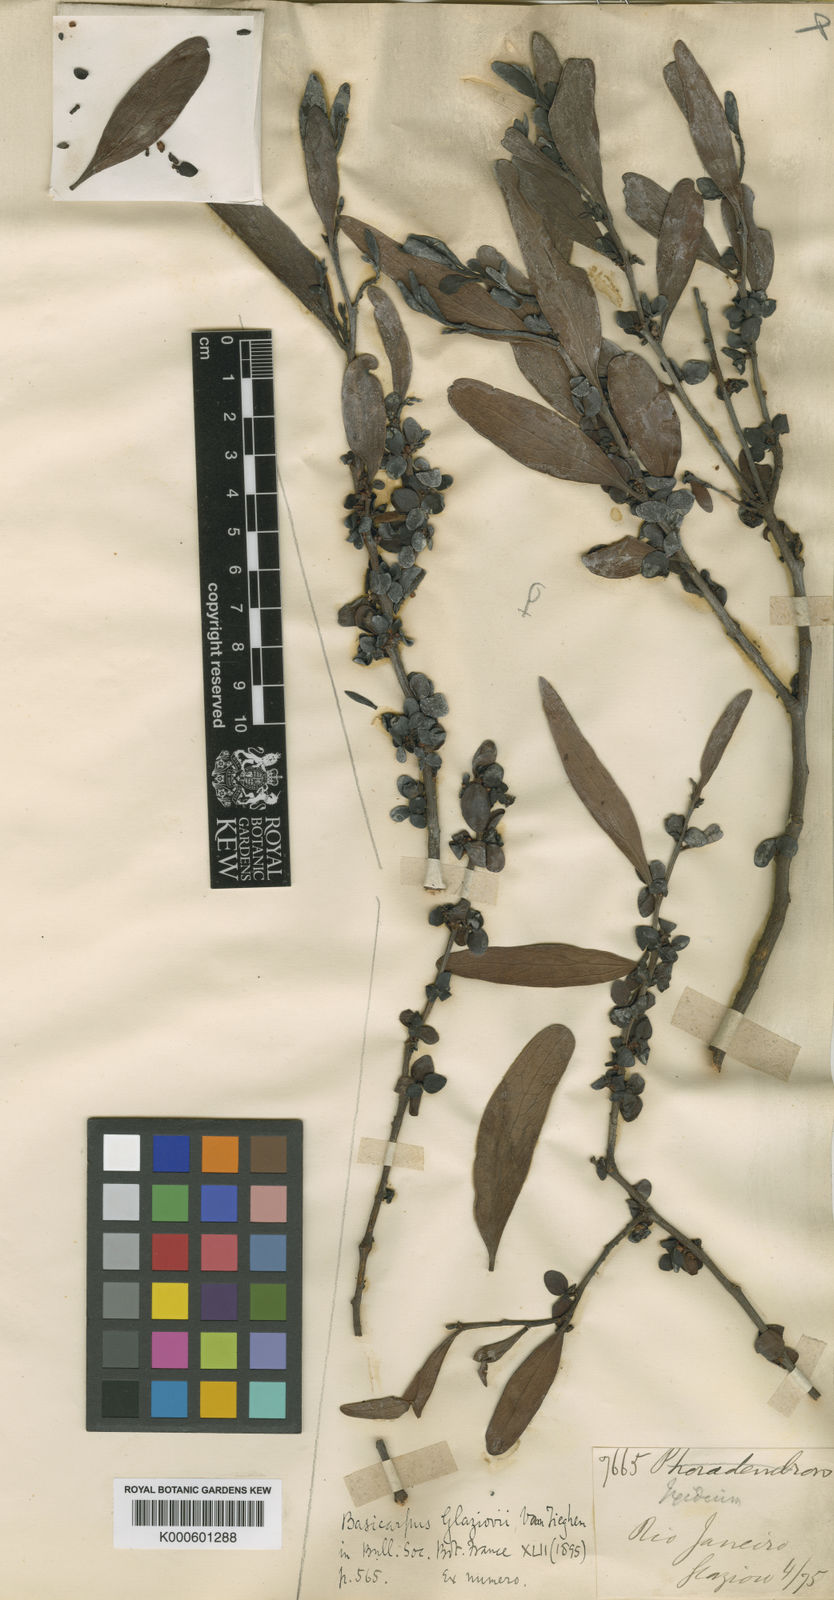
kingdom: Plantae
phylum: Tracheophyta
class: Magnoliopsida
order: Santalales
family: Santalaceae
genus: Antidaphne
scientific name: Antidaphne glaziovii
